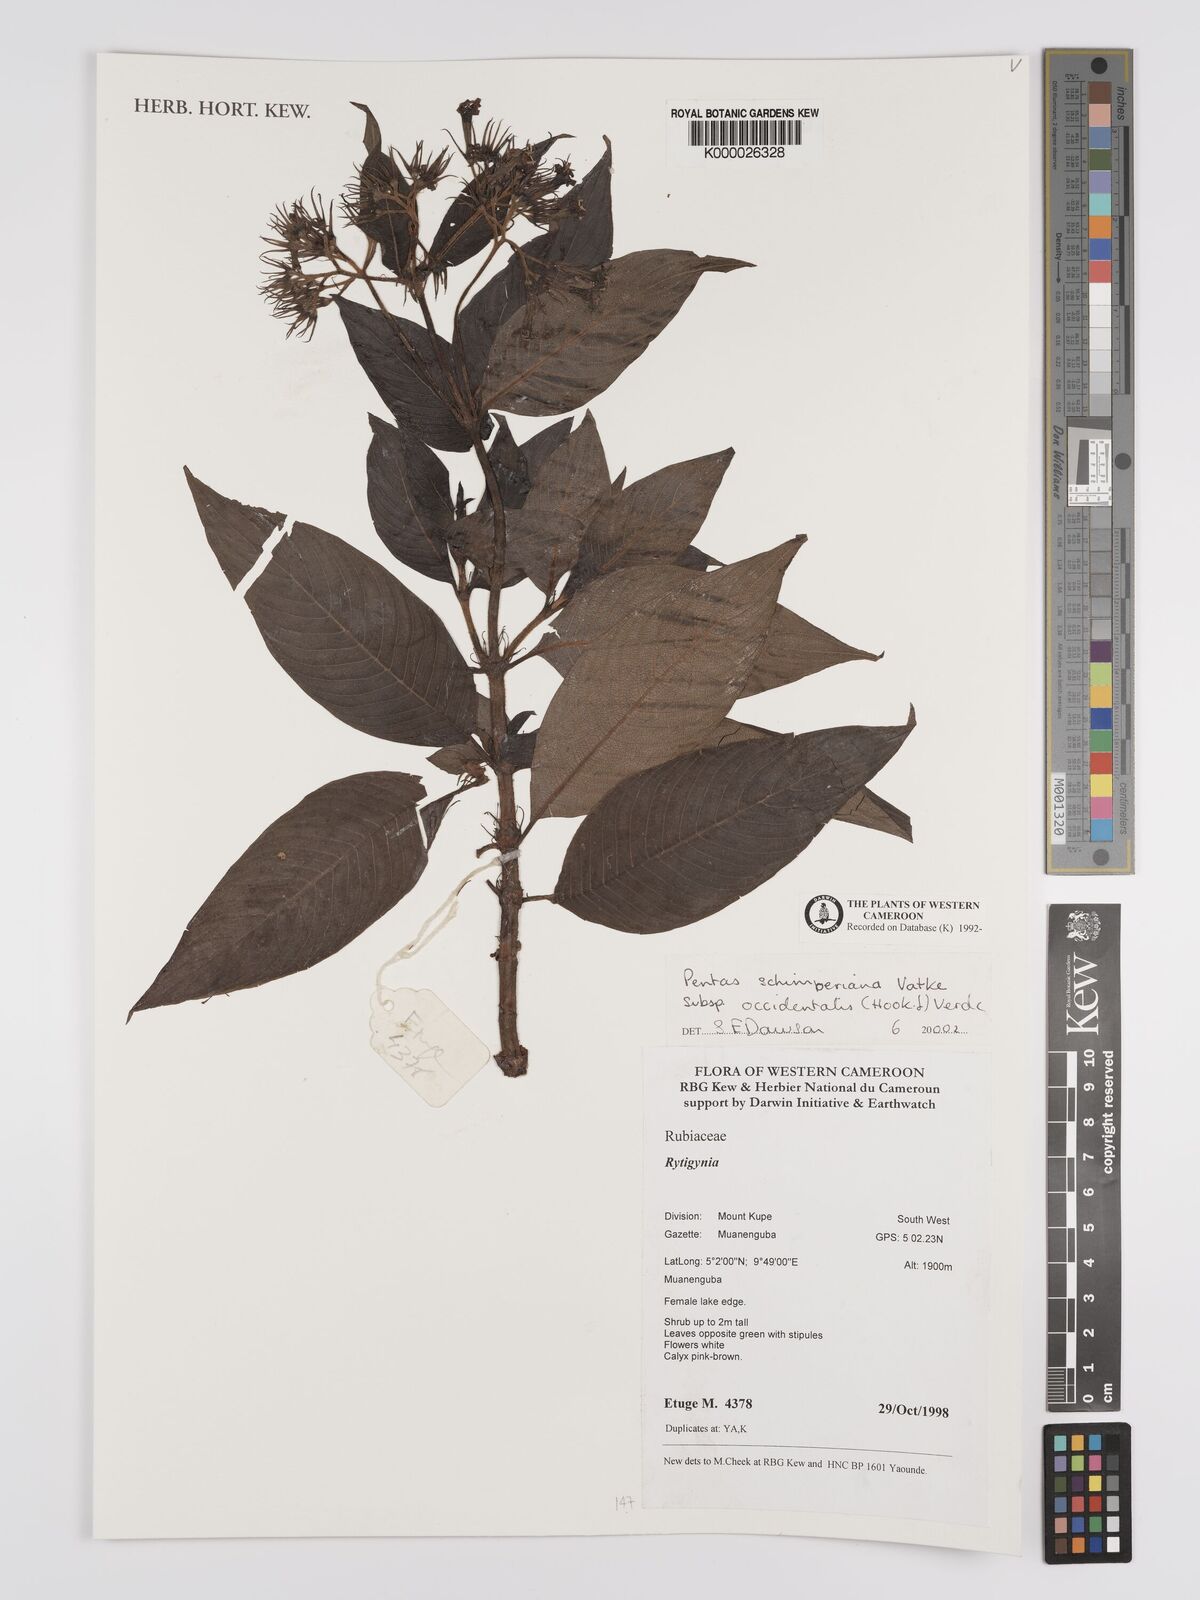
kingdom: Plantae
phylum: Tracheophyta
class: Magnoliopsida
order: Gentianales
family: Rubiaceae
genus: Phyllopentas
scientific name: Phyllopentas schimperi
